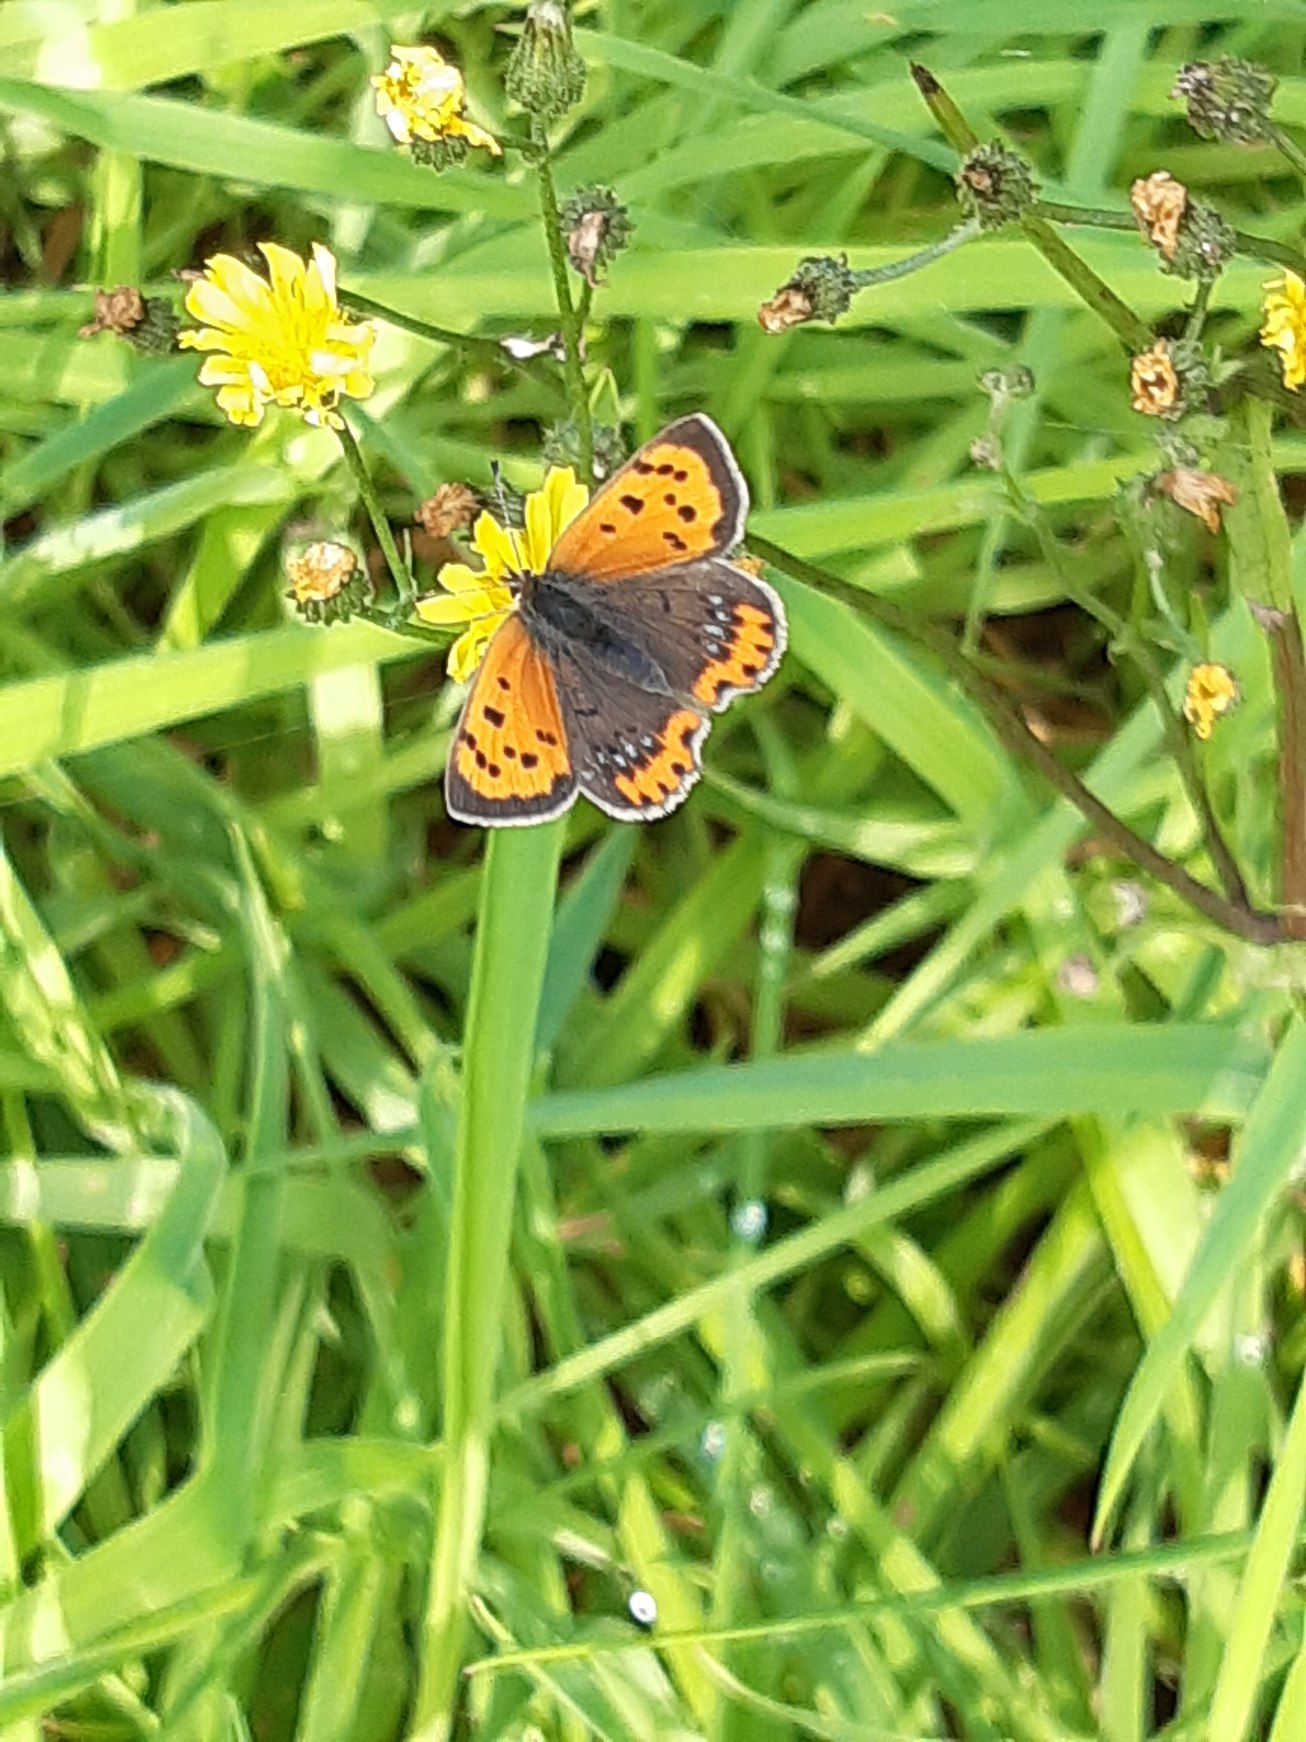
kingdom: Animalia
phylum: Arthropoda
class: Insecta
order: Lepidoptera
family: Lycaenidae
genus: Lycaena
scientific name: Lycaena phlaeas
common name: Lille ildfugl
